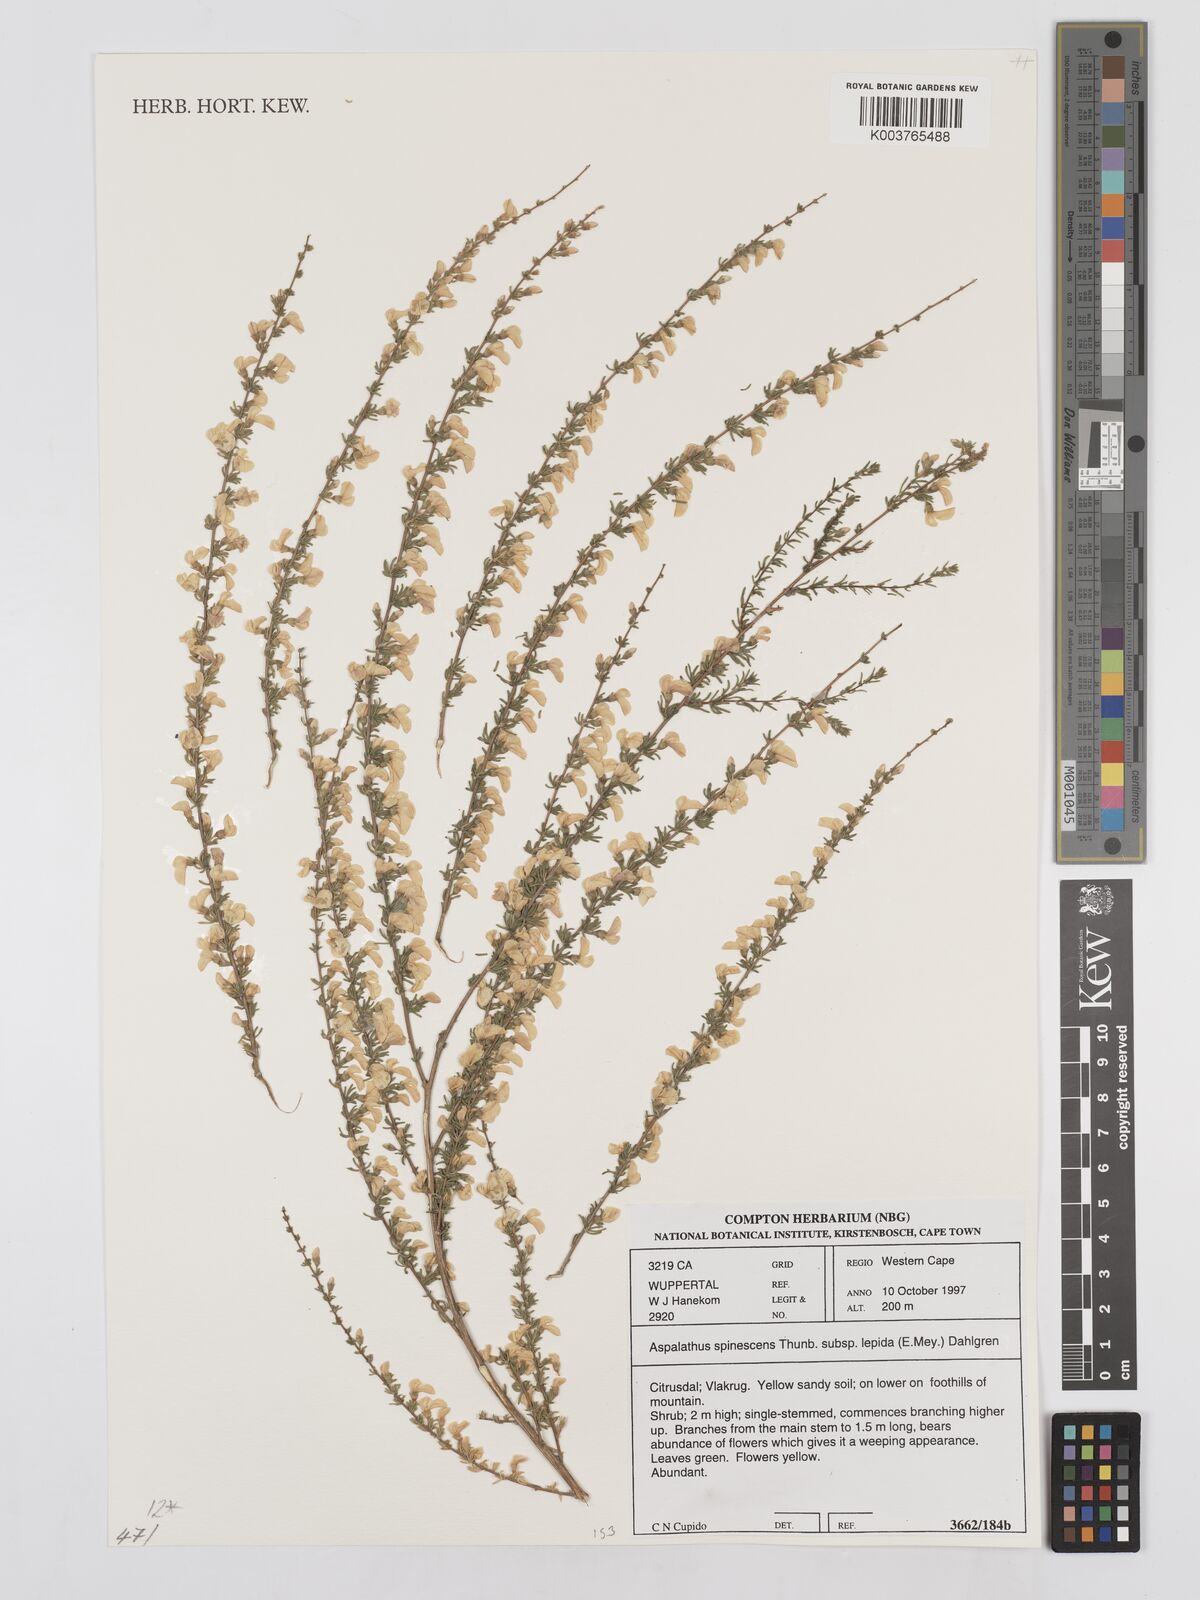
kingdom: Plantae
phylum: Tracheophyta
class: Magnoliopsida
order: Fabales
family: Fabaceae
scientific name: Fabaceae
